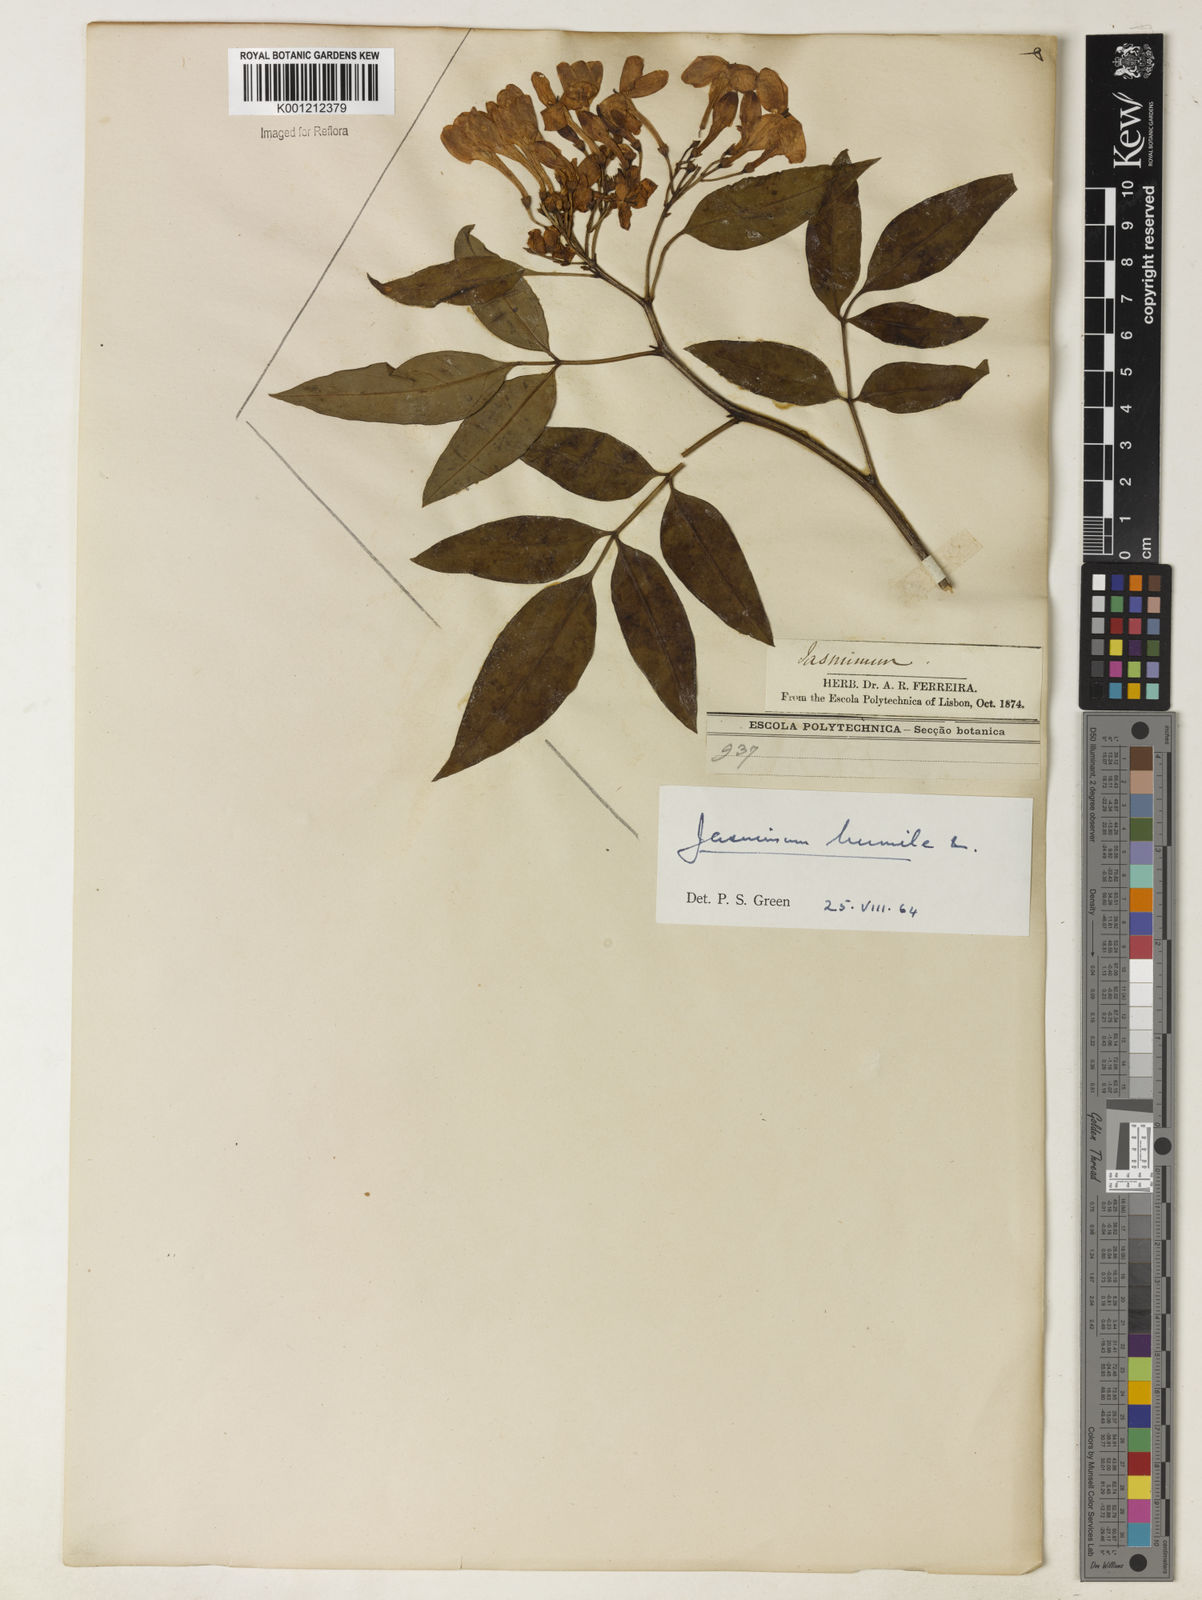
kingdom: Plantae
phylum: Tracheophyta
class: Magnoliopsida
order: Lamiales
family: Oleaceae
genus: Chrysojasminum
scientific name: Chrysojasminum humile
